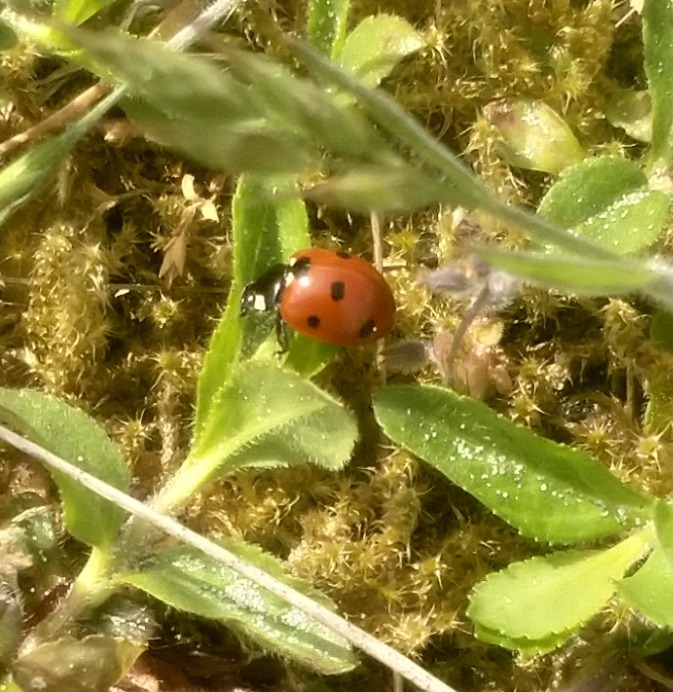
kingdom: Animalia
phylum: Arthropoda
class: Insecta
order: Coleoptera
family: Coccinellidae
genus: Coccinella
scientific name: Coccinella septempunctata
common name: Syvplettet mariehøne
